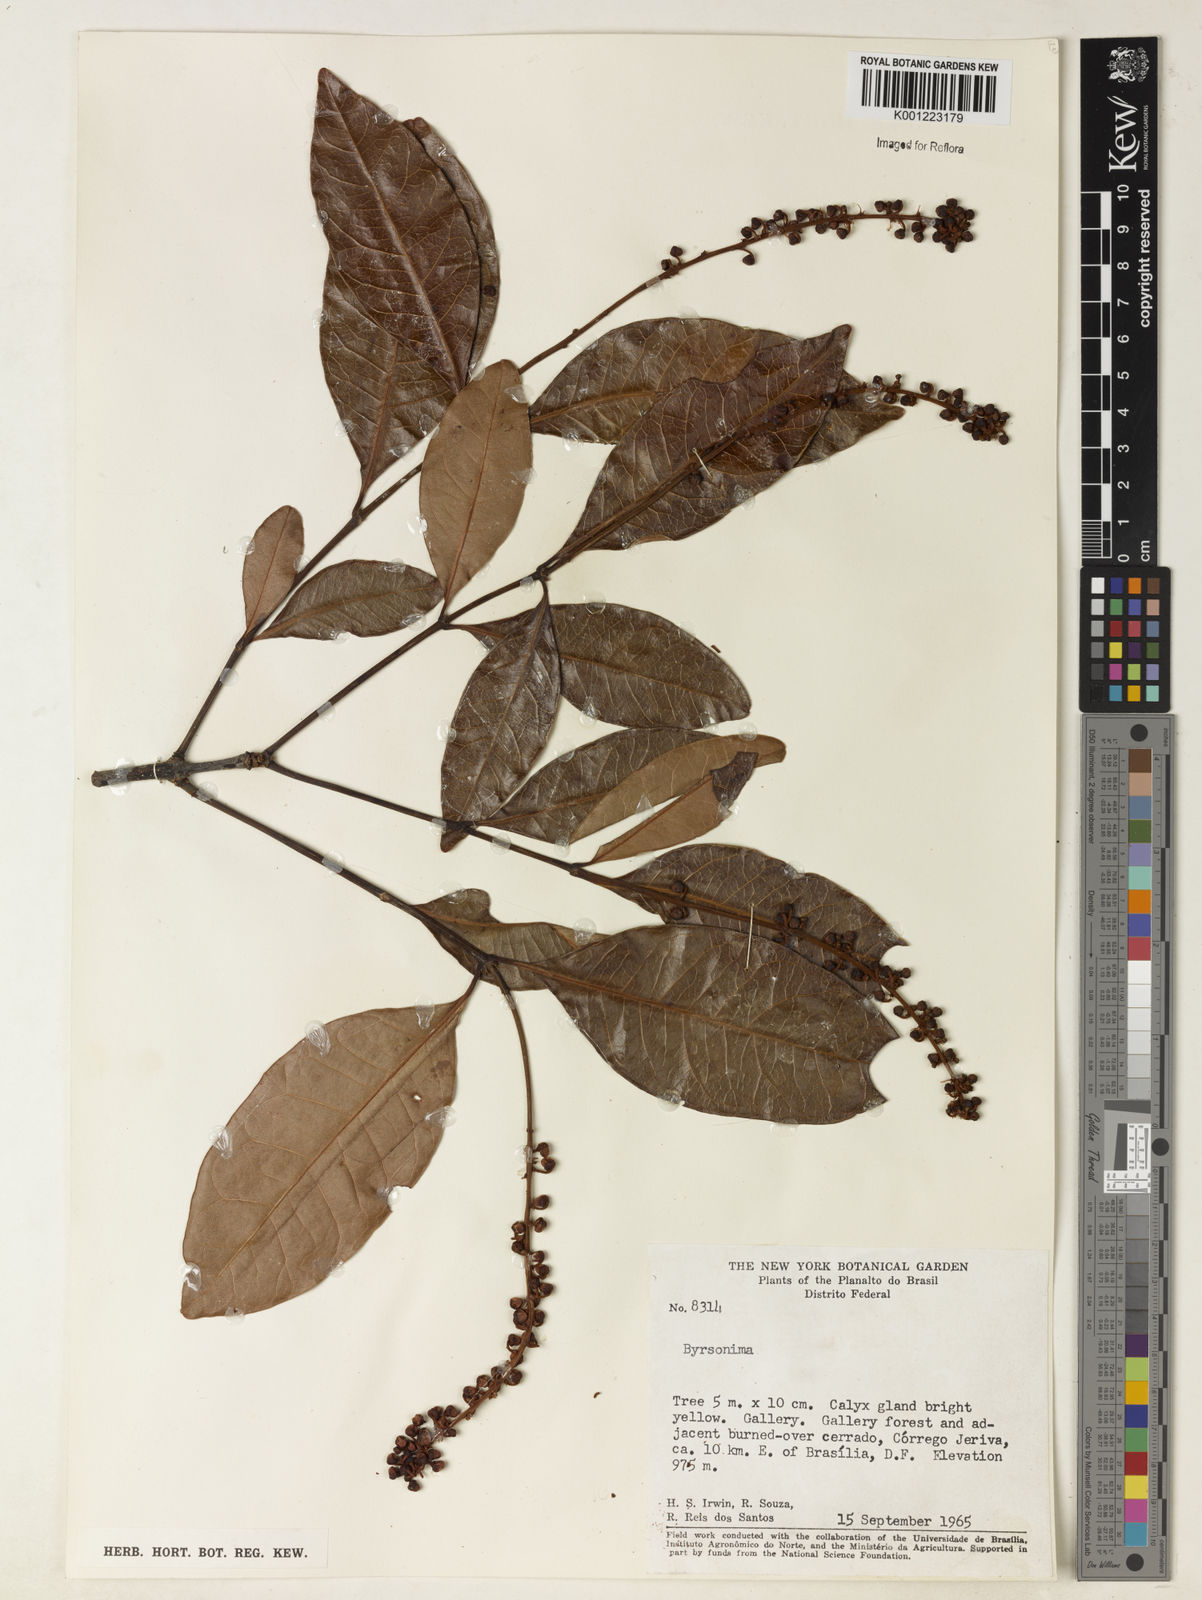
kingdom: Plantae
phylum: Tracheophyta
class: Magnoliopsida
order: Malpighiales
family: Malpighiaceae
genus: Byrsonima
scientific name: Byrsonima
